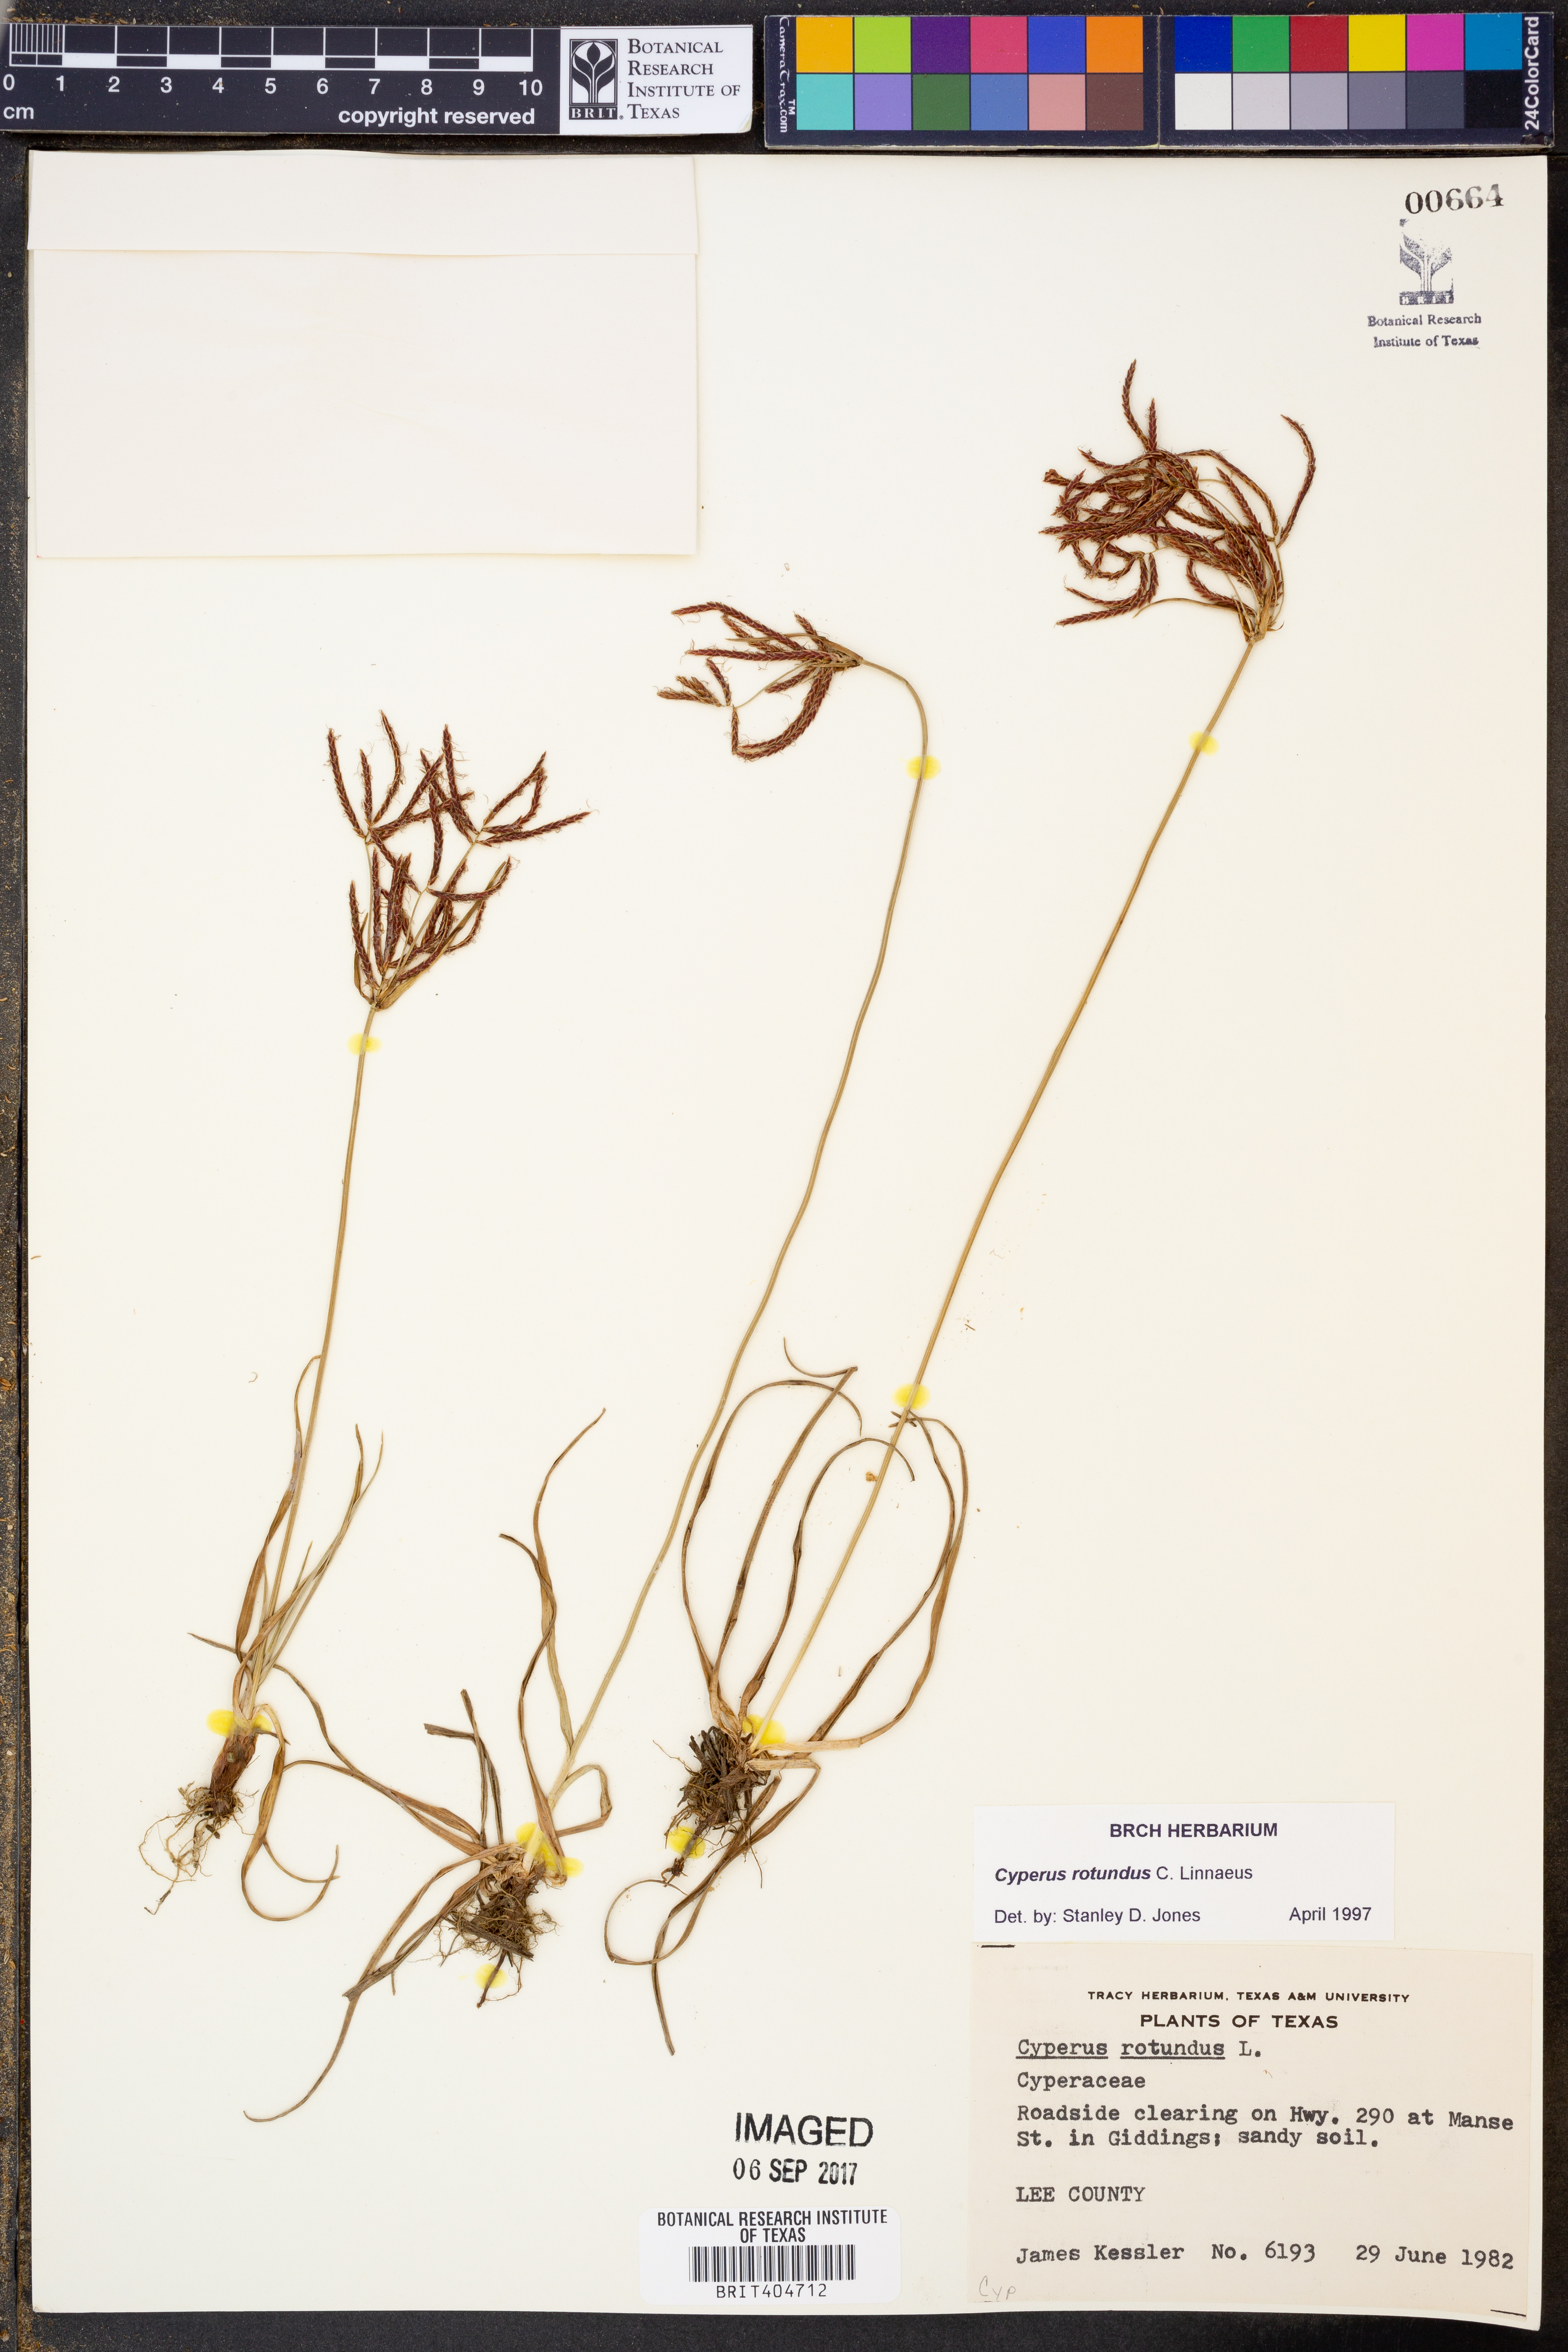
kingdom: Plantae
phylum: Tracheophyta
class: Liliopsida
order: Poales
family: Cyperaceae
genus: Cyperus
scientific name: Cyperus rotundus
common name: Nutgrass
